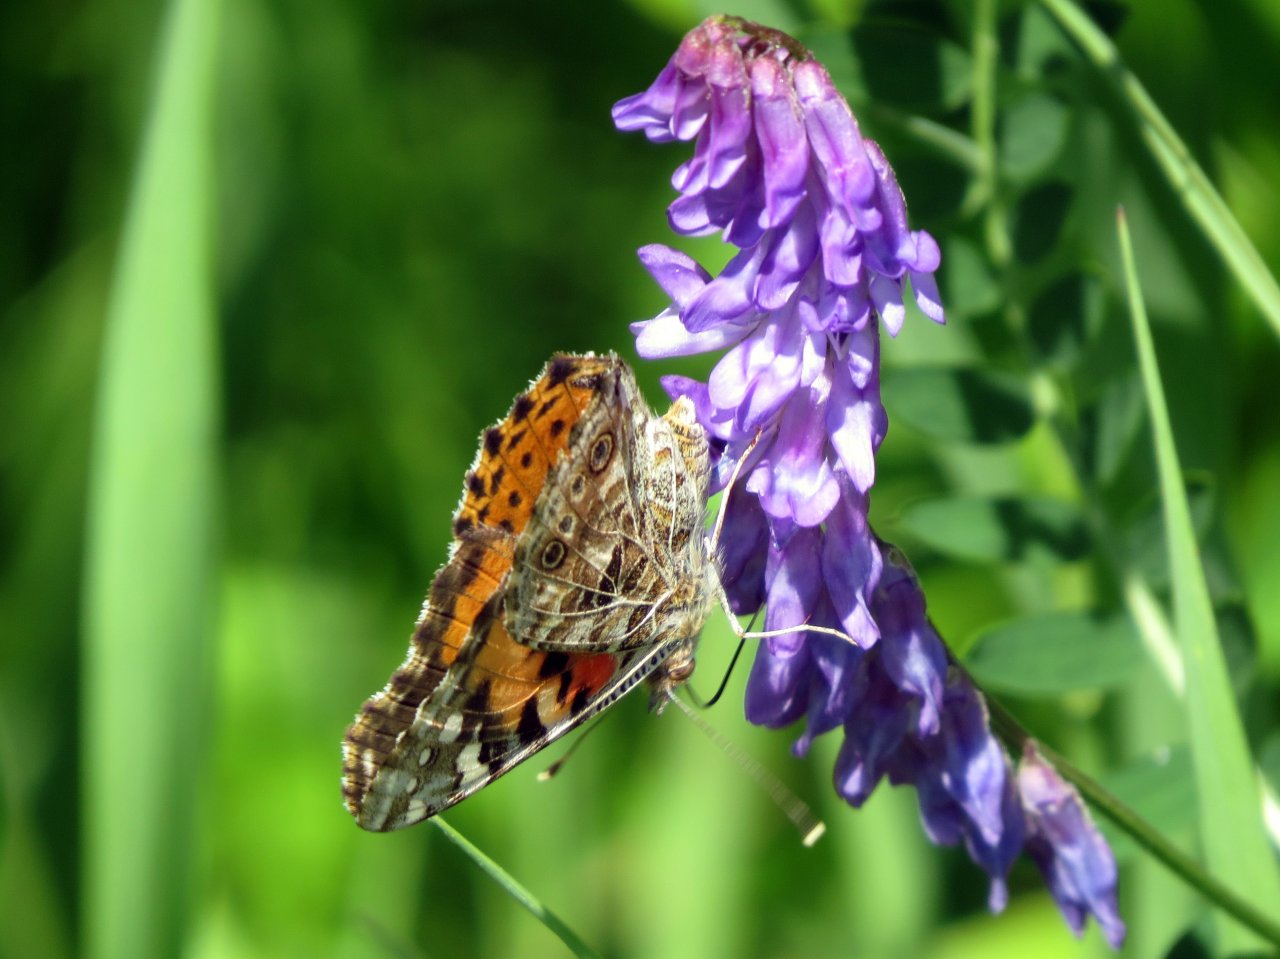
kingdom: Animalia
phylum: Arthropoda
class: Insecta
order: Lepidoptera
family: Nymphalidae
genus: Vanessa
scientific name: Vanessa cardui
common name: Painted Lady
